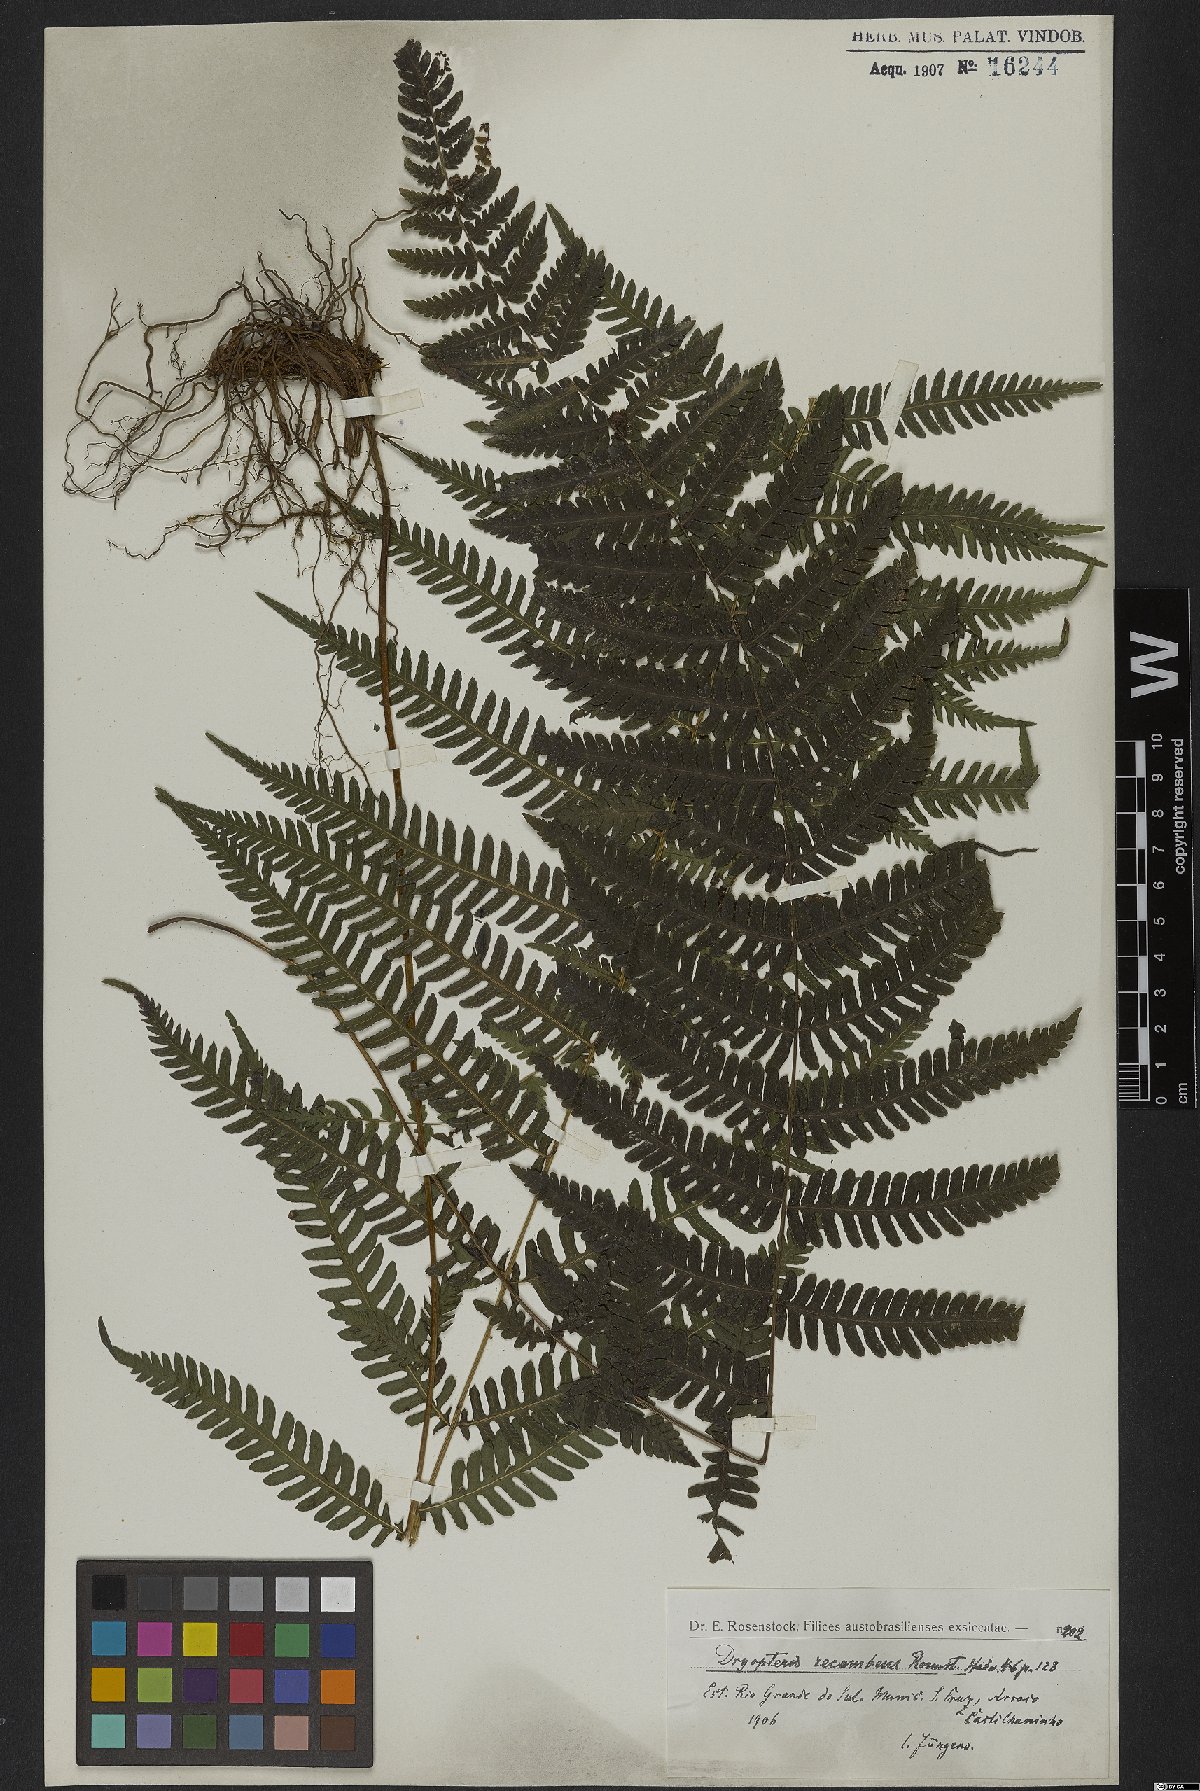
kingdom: Plantae
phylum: Tracheophyta
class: Polypodiopsida
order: Polypodiales
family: Thelypteridaceae
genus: Steiropteris
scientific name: Steiropteris clypeolutata
